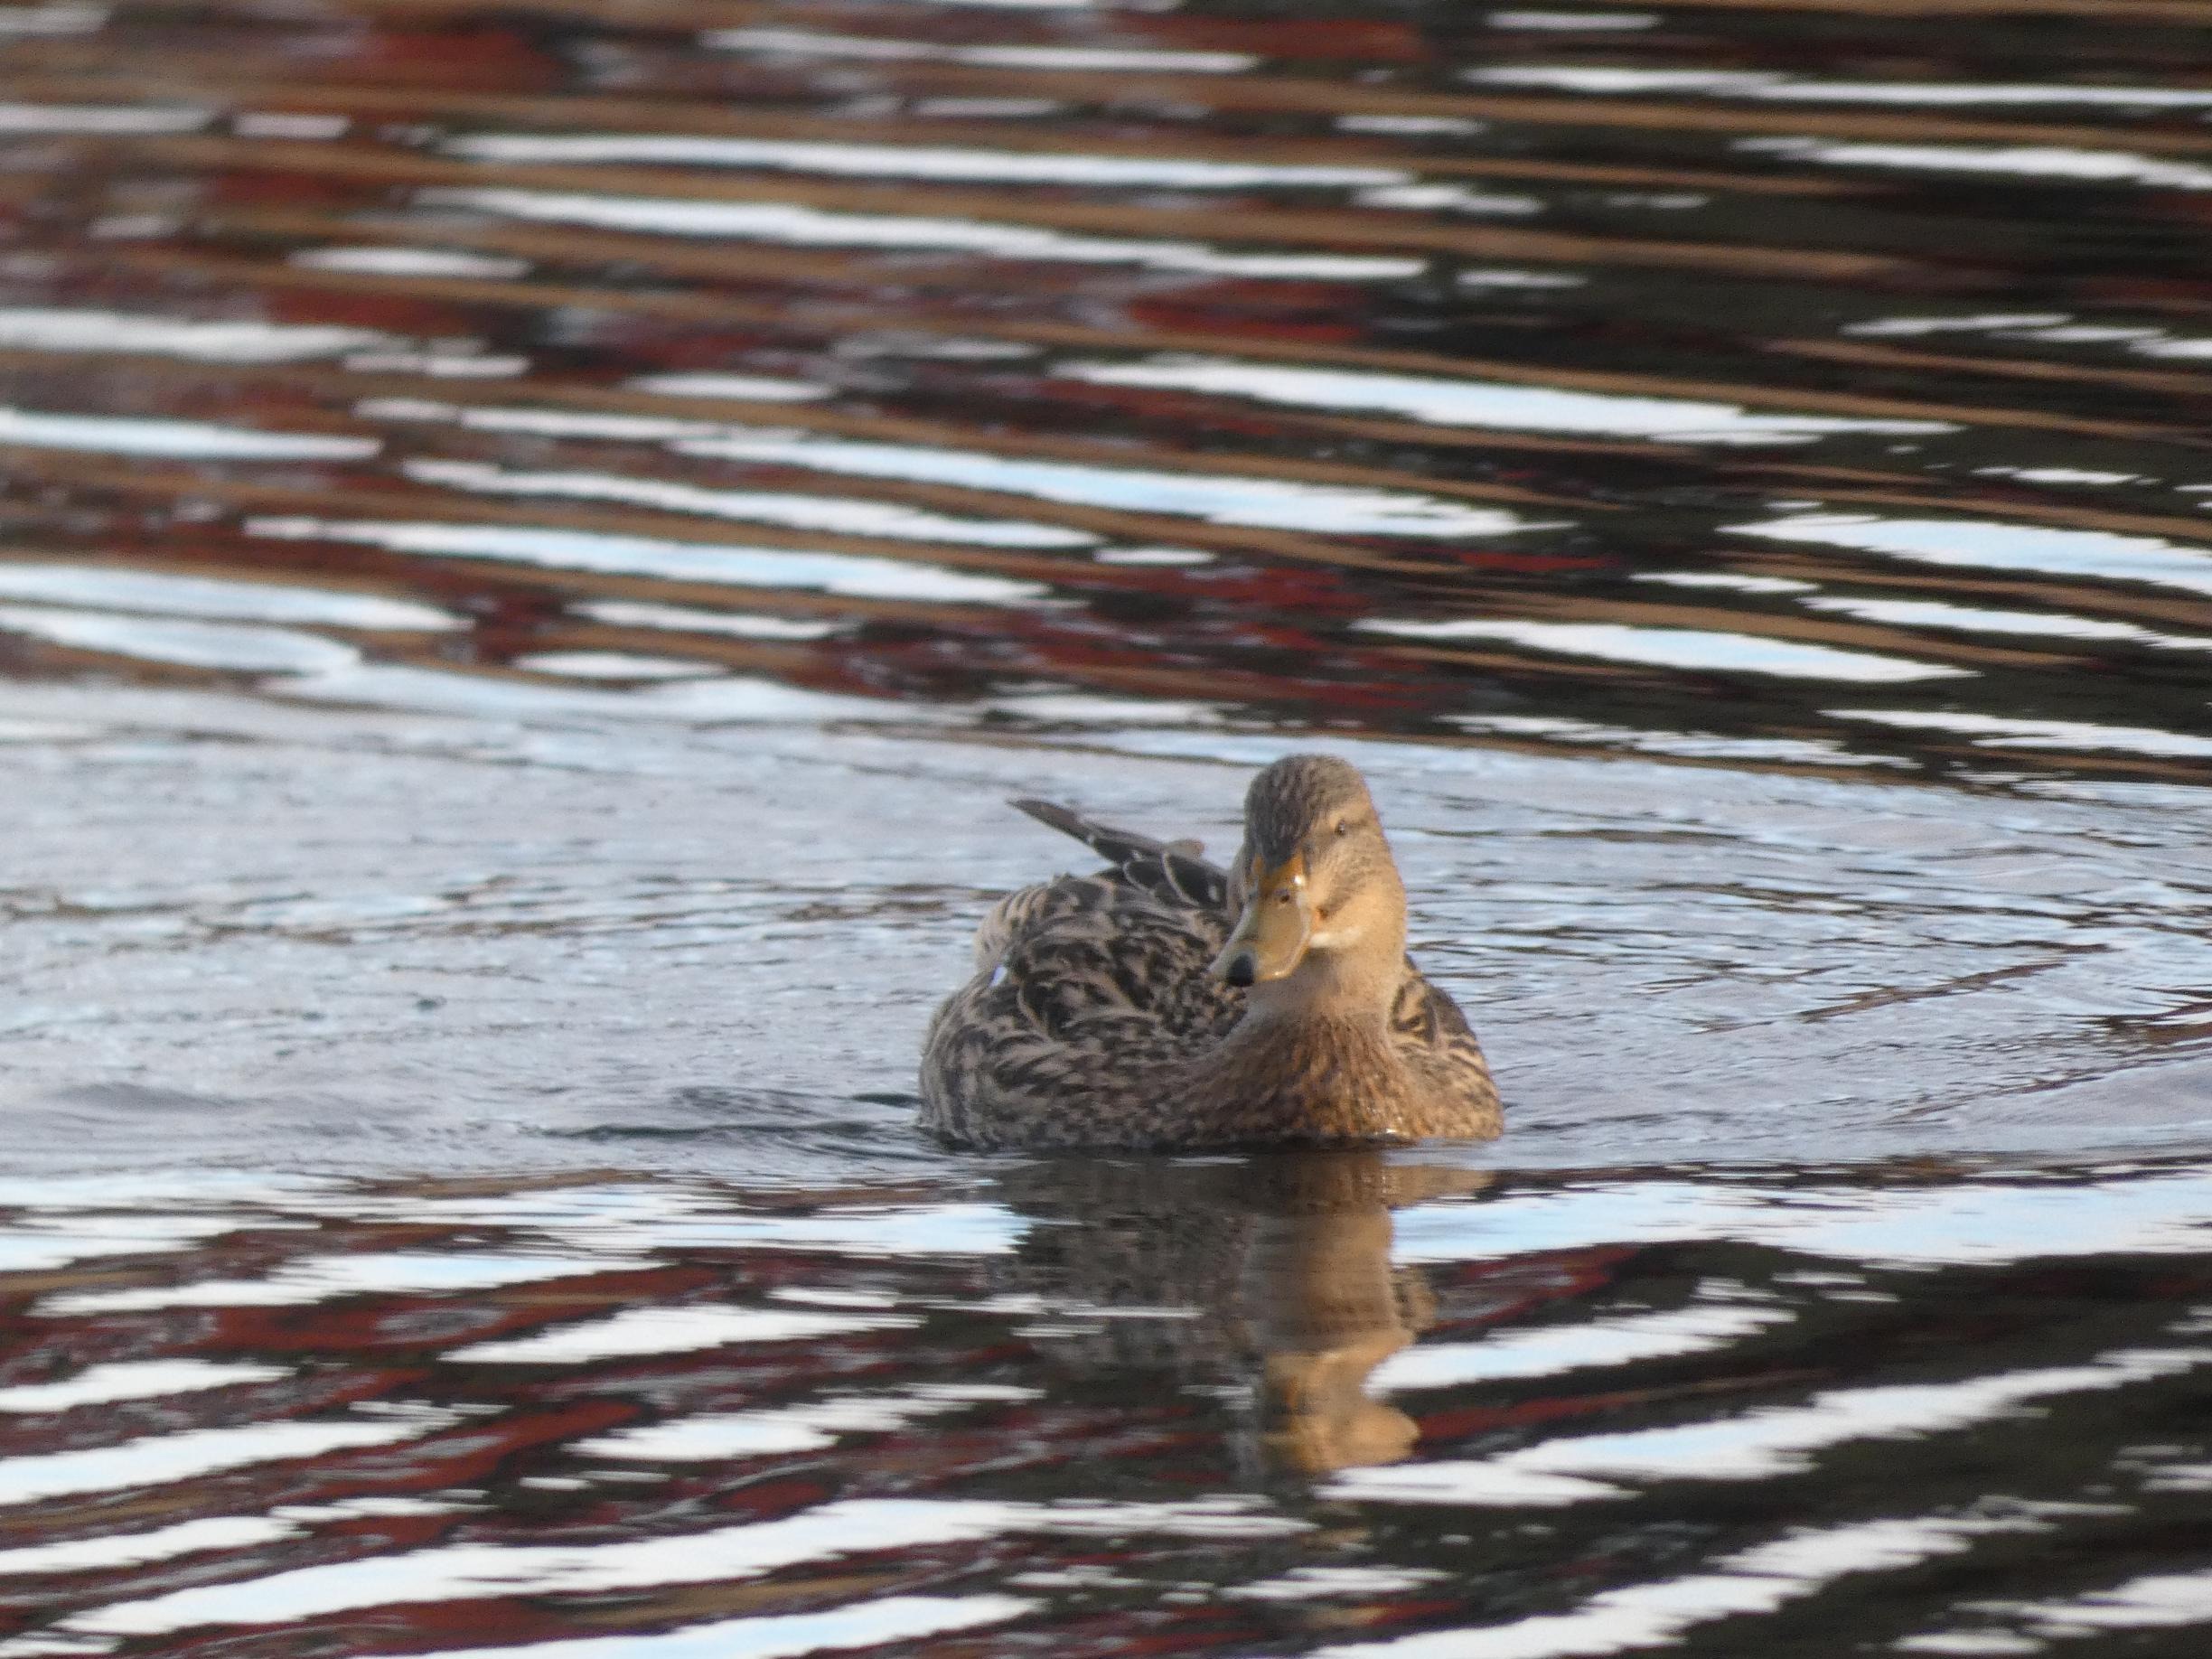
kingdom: Animalia
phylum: Chordata
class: Aves
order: Anseriformes
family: Anatidae
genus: Anas
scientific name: Anas platyrhynchos
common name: Gråand
